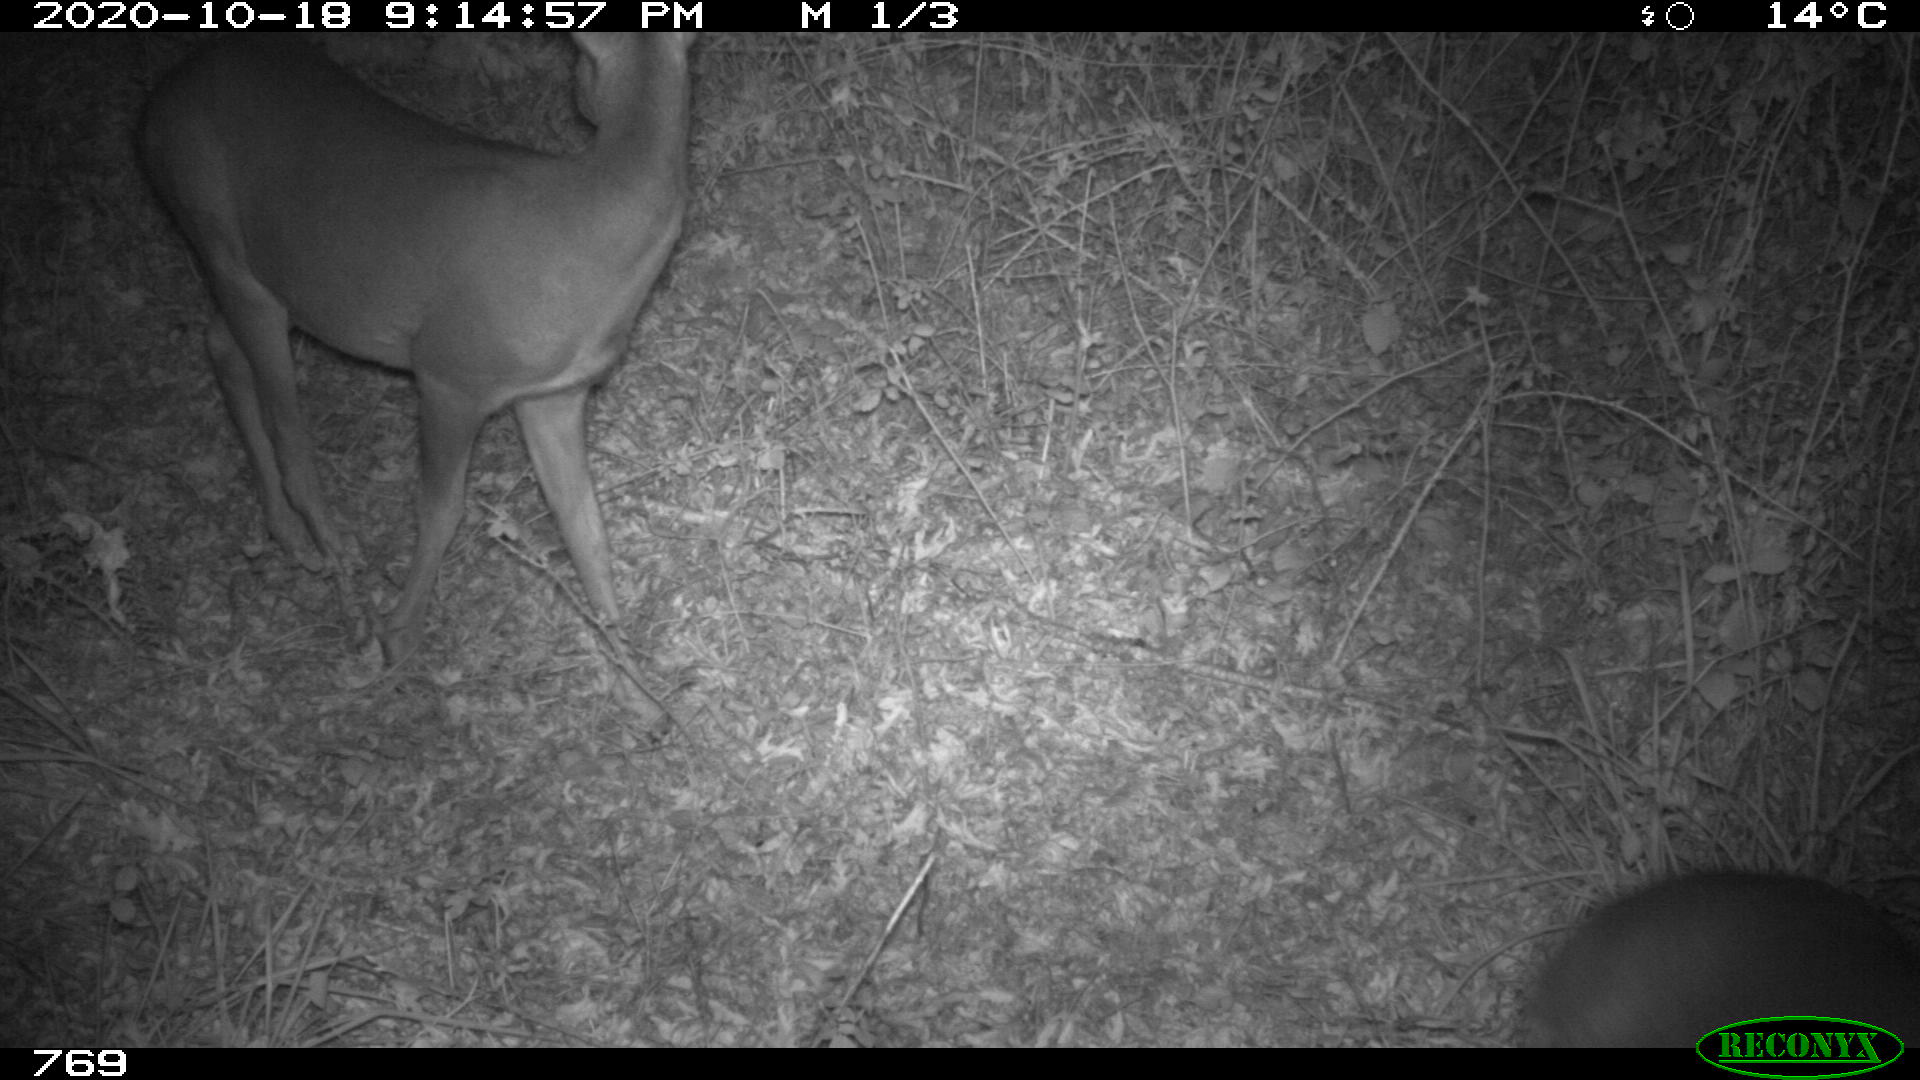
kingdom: Animalia
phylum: Chordata
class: Mammalia
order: Artiodactyla
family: Cervidae
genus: Capreolus
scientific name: Capreolus capreolus
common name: Western roe deer
